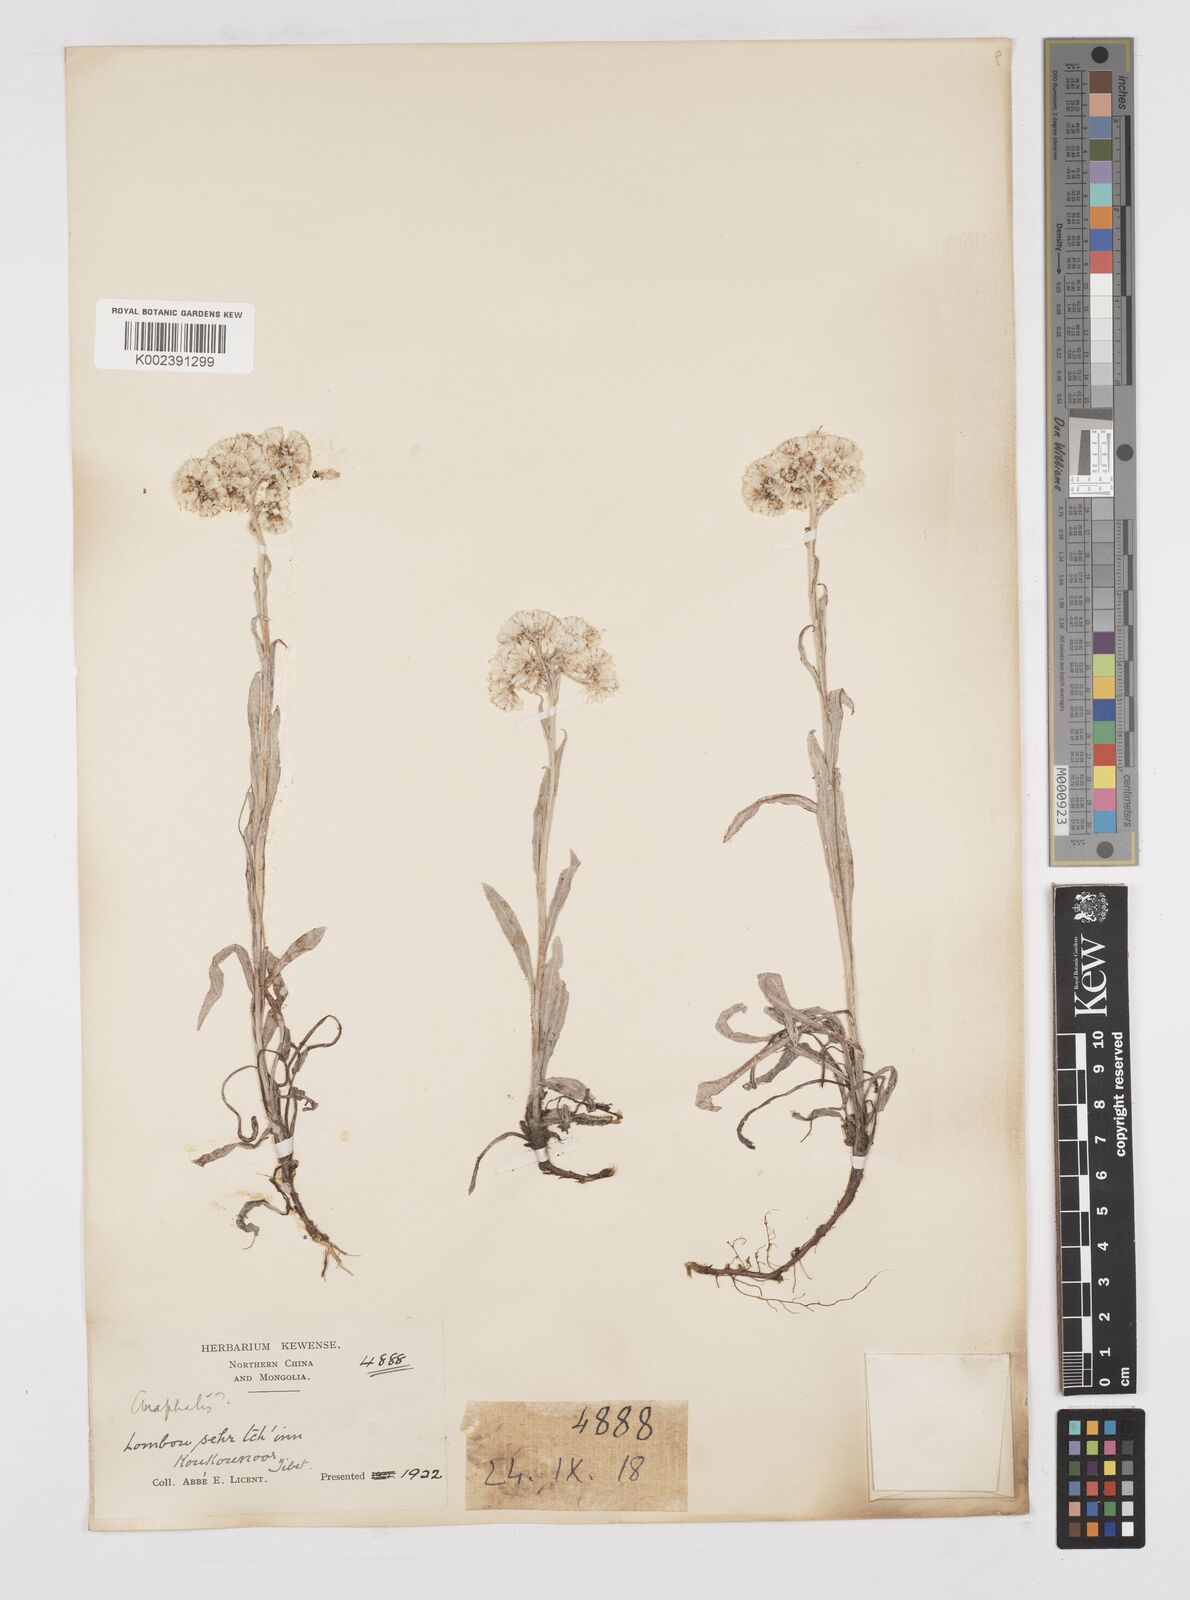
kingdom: Plantae
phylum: Tracheophyta
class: Magnoliopsida
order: Asterales
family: Asteraceae
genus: Anaphalis
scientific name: Anaphalis sinica
